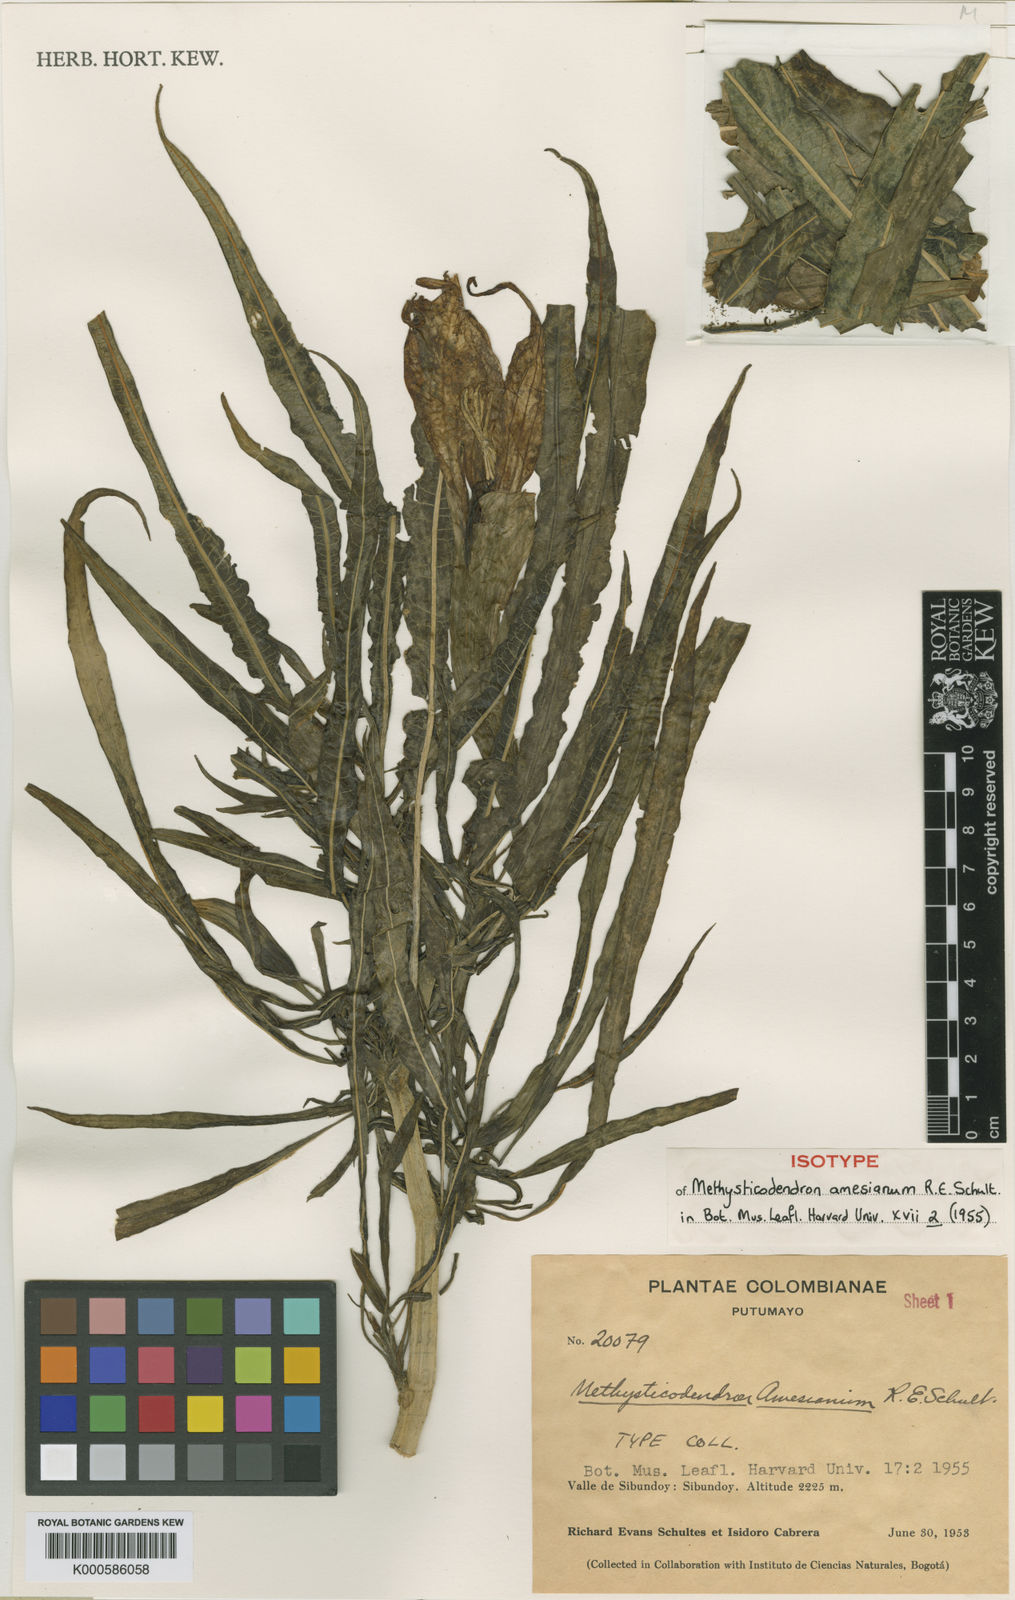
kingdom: Plantae
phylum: Tracheophyta
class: Magnoliopsida
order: Solanales
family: Solanaceae
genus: Brugmansia
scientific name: Brugmansia
